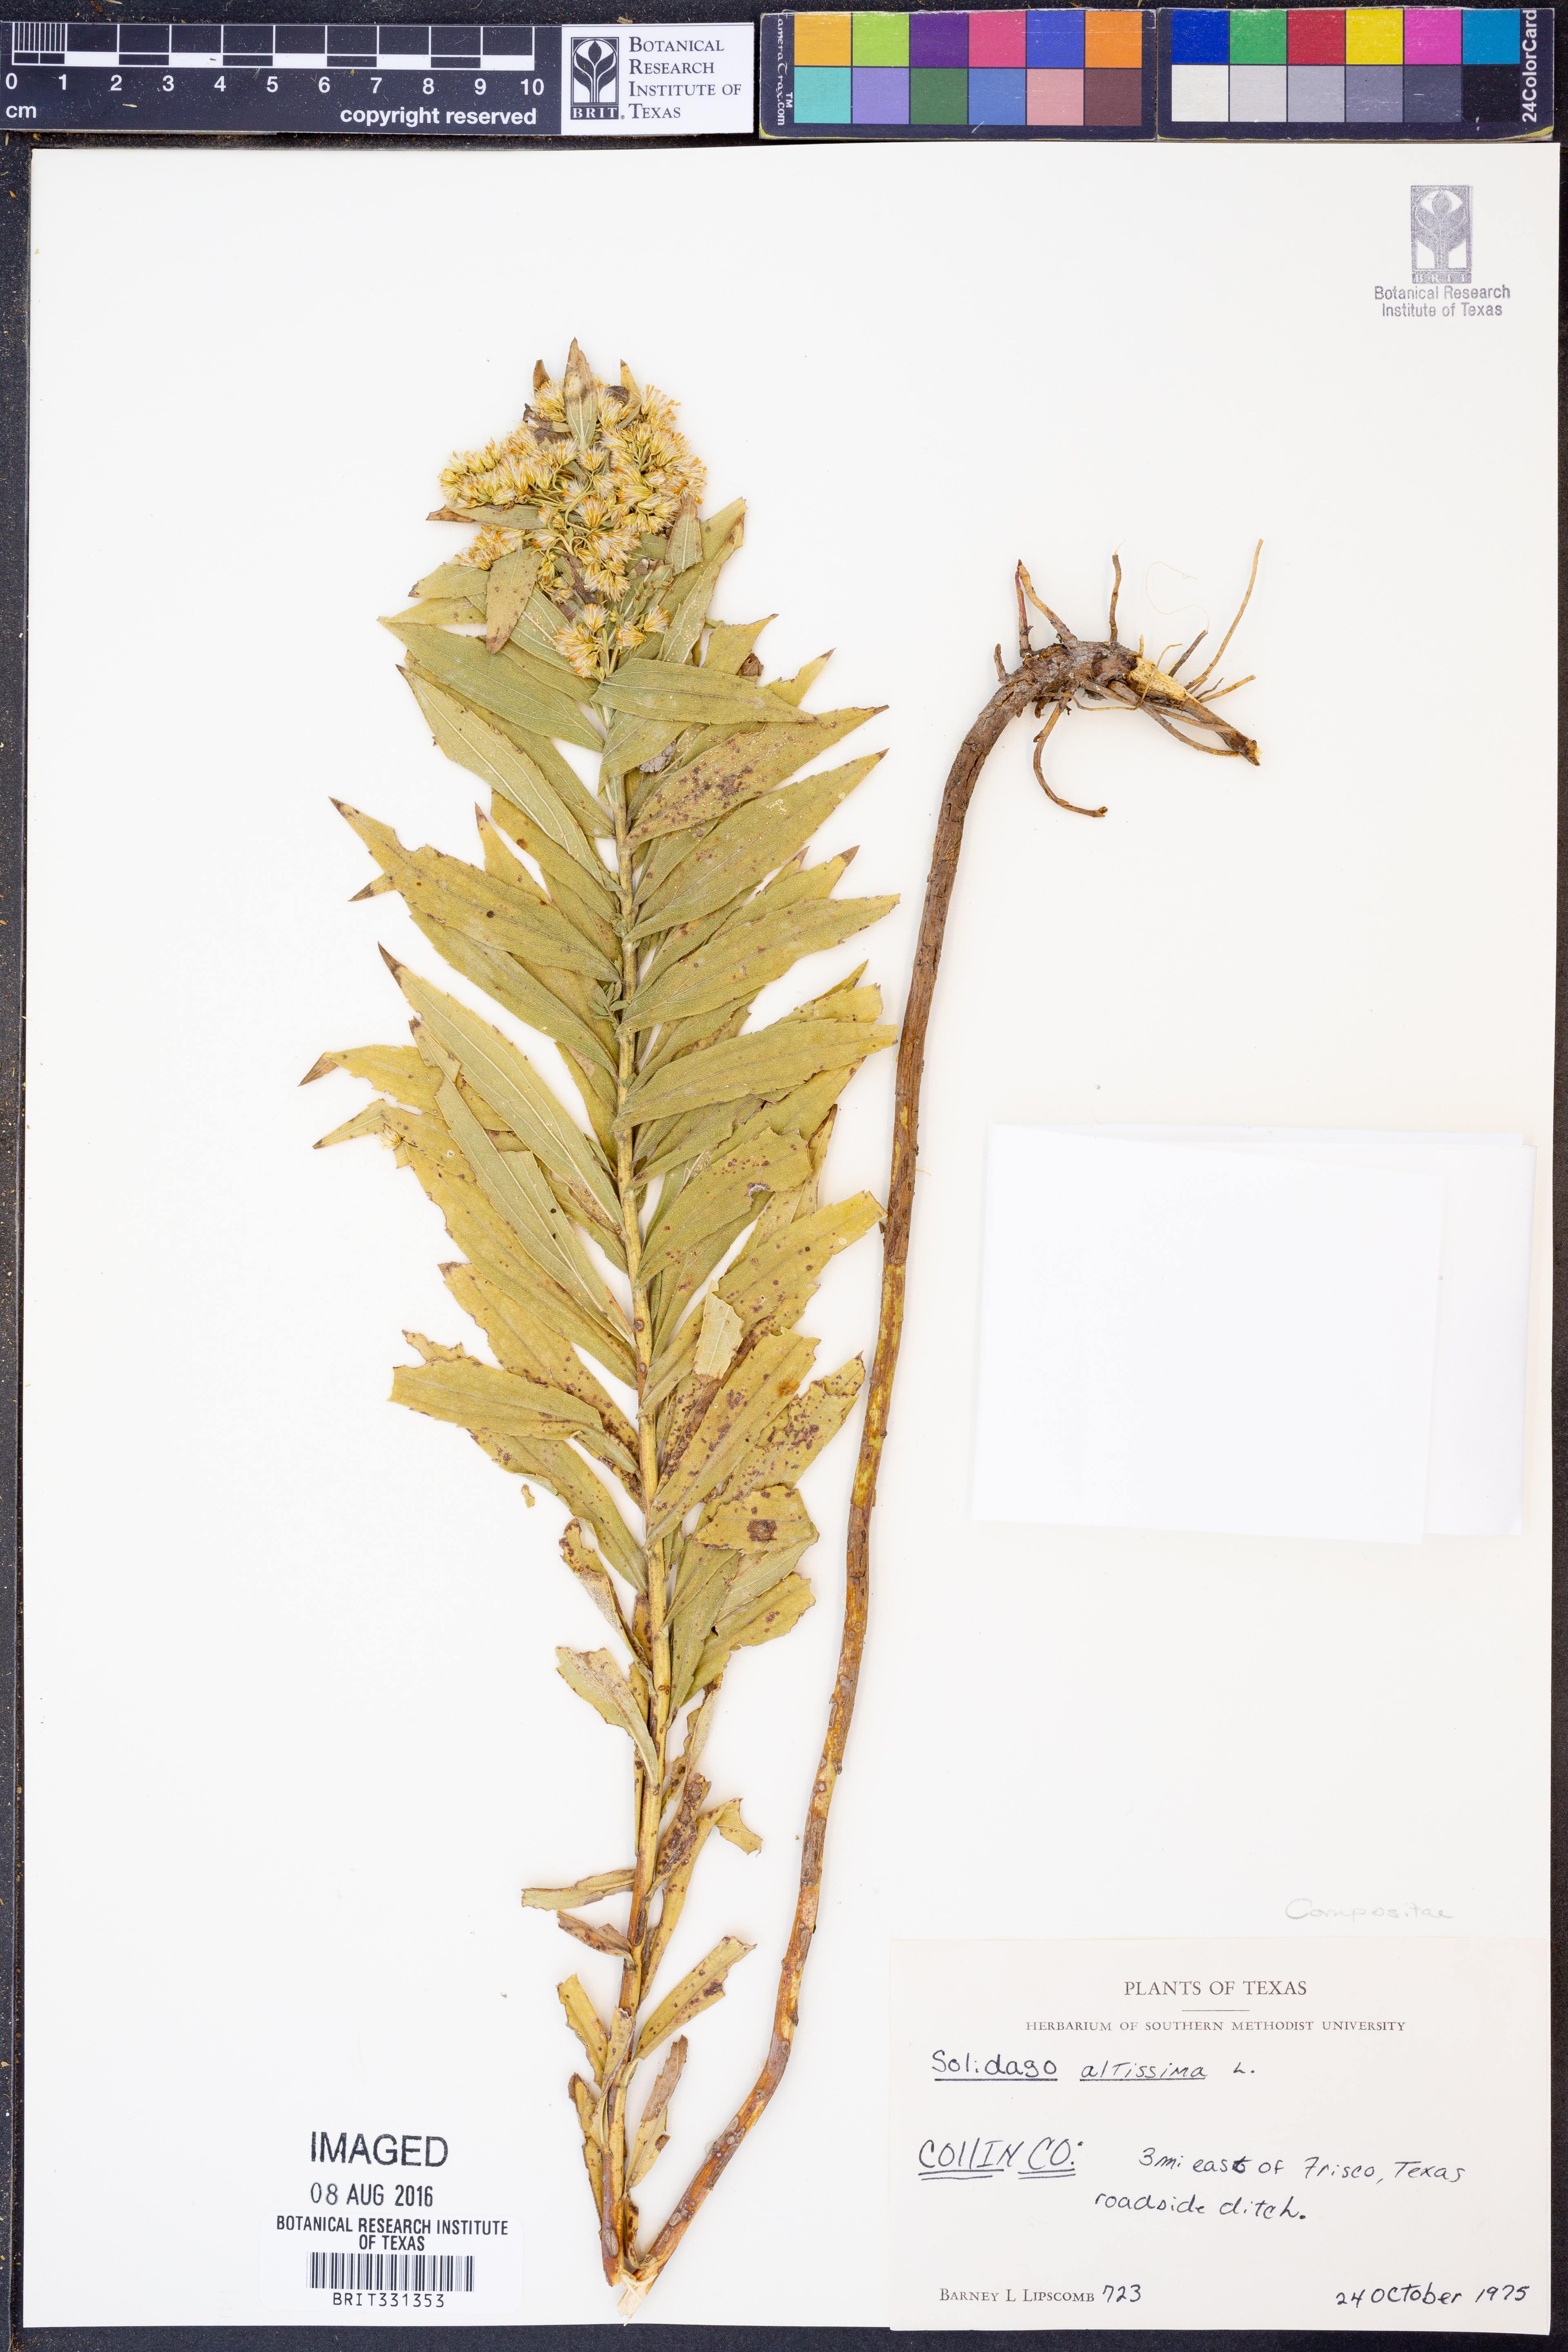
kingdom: Plantae
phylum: Tracheophyta
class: Magnoliopsida
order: Asterales
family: Asteraceae
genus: Solidago
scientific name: Solidago altissima
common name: Late goldenrod
